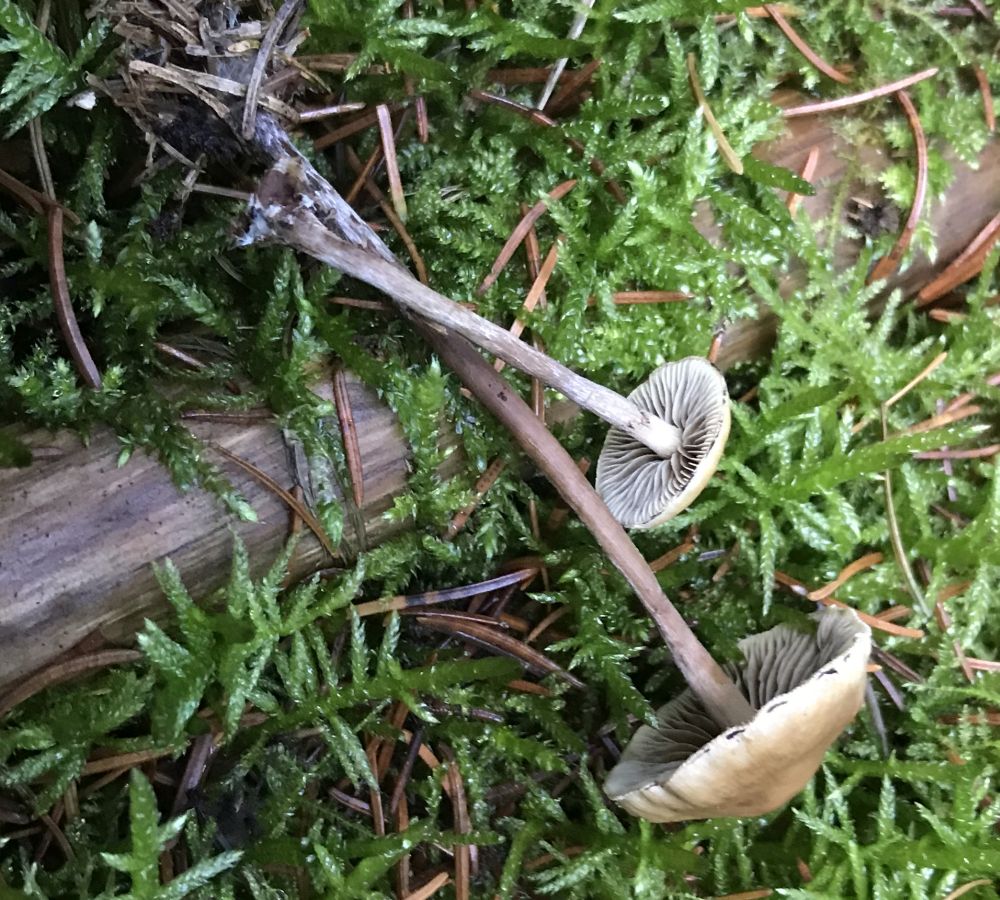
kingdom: Fungi
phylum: Basidiomycota
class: Agaricomycetes
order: Agaricales
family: Omphalotaceae
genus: Collybiopsis
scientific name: Collybiopsis peronata
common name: bestøvlet fladhat
